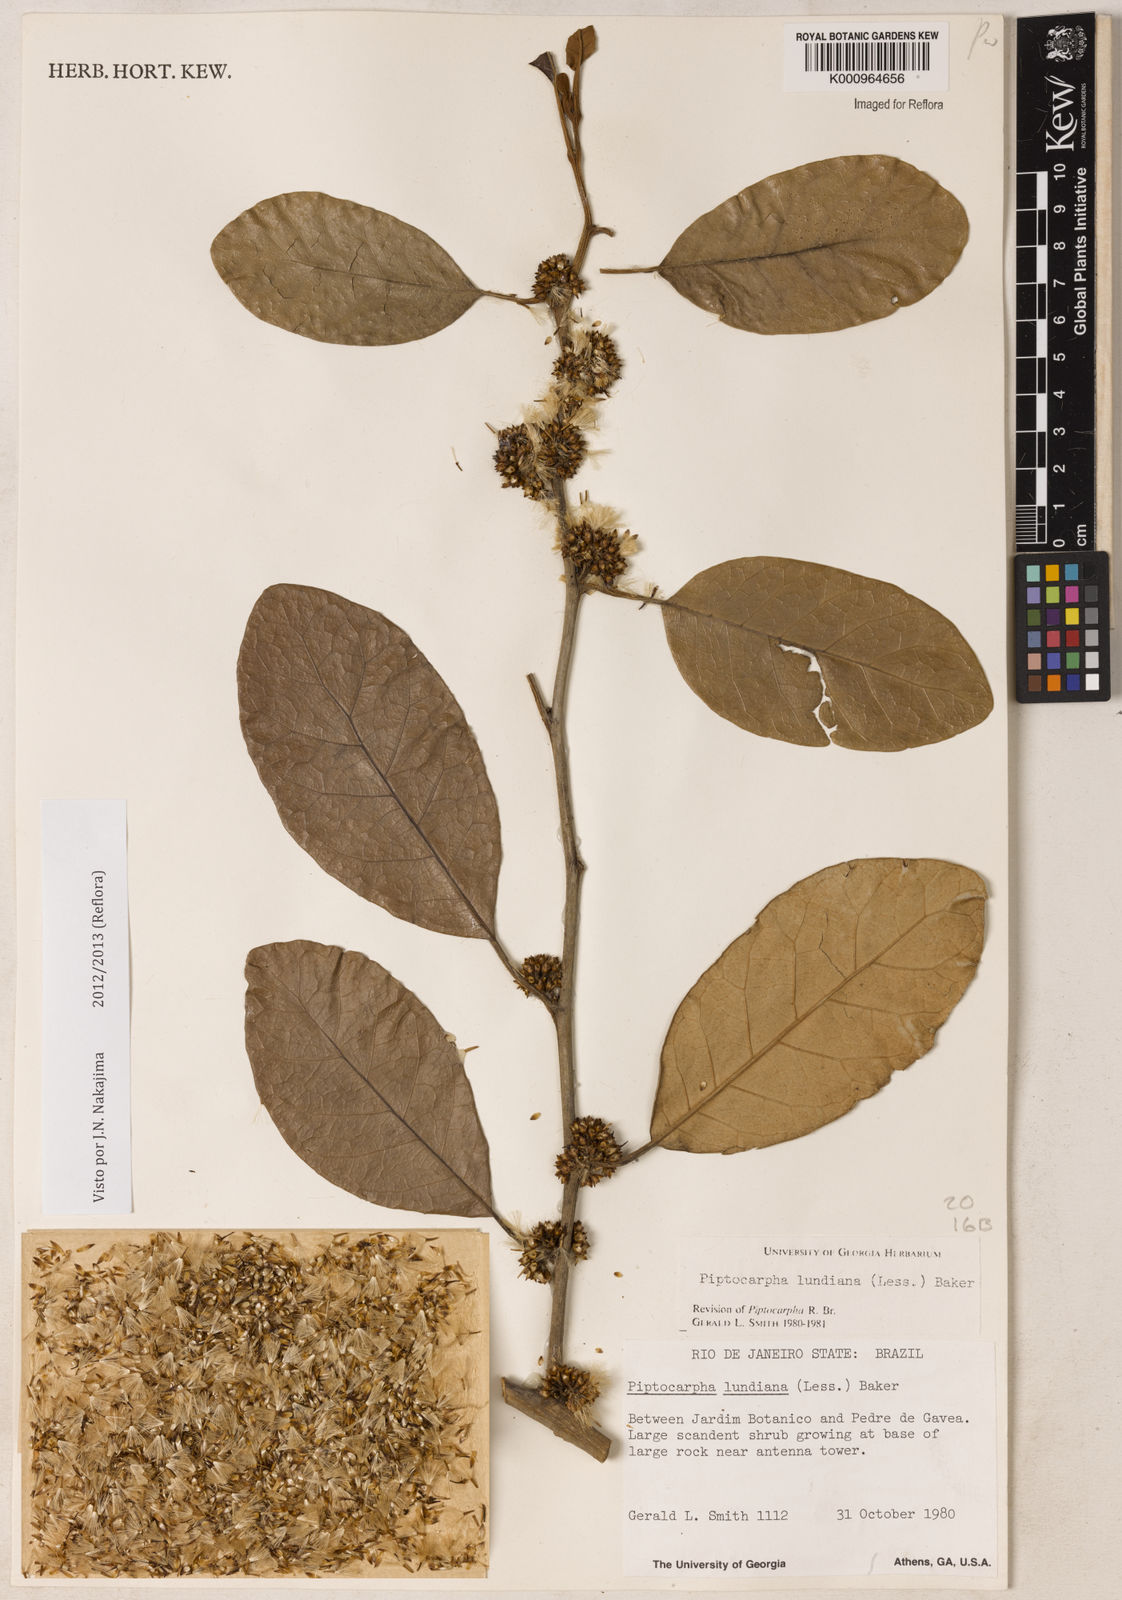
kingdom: Plantae
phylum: Tracheophyta
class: Magnoliopsida
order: Asterales
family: Asteraceae
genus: Piptocarpha
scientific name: Piptocarpha lundiana
